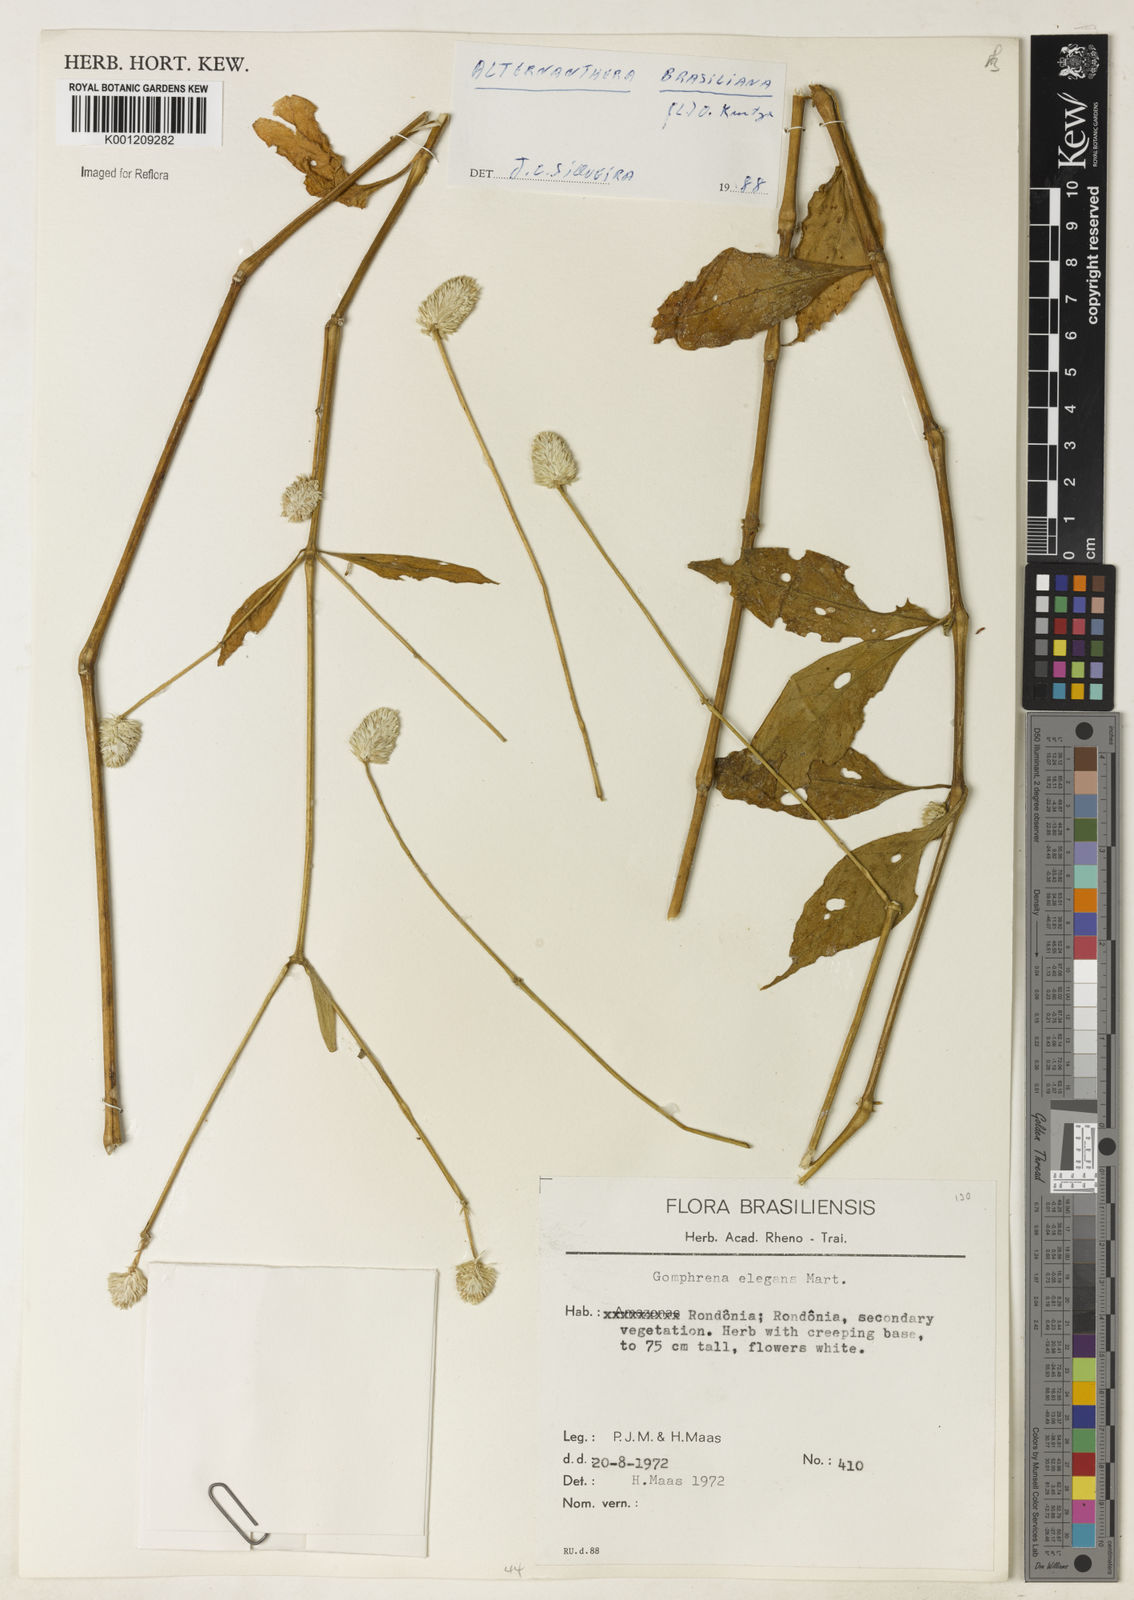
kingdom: Plantae
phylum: Tracheophyta
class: Magnoliopsida
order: Caryophyllales
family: Amaranthaceae
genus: Gomphrena
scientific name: Gomphrena elegans
